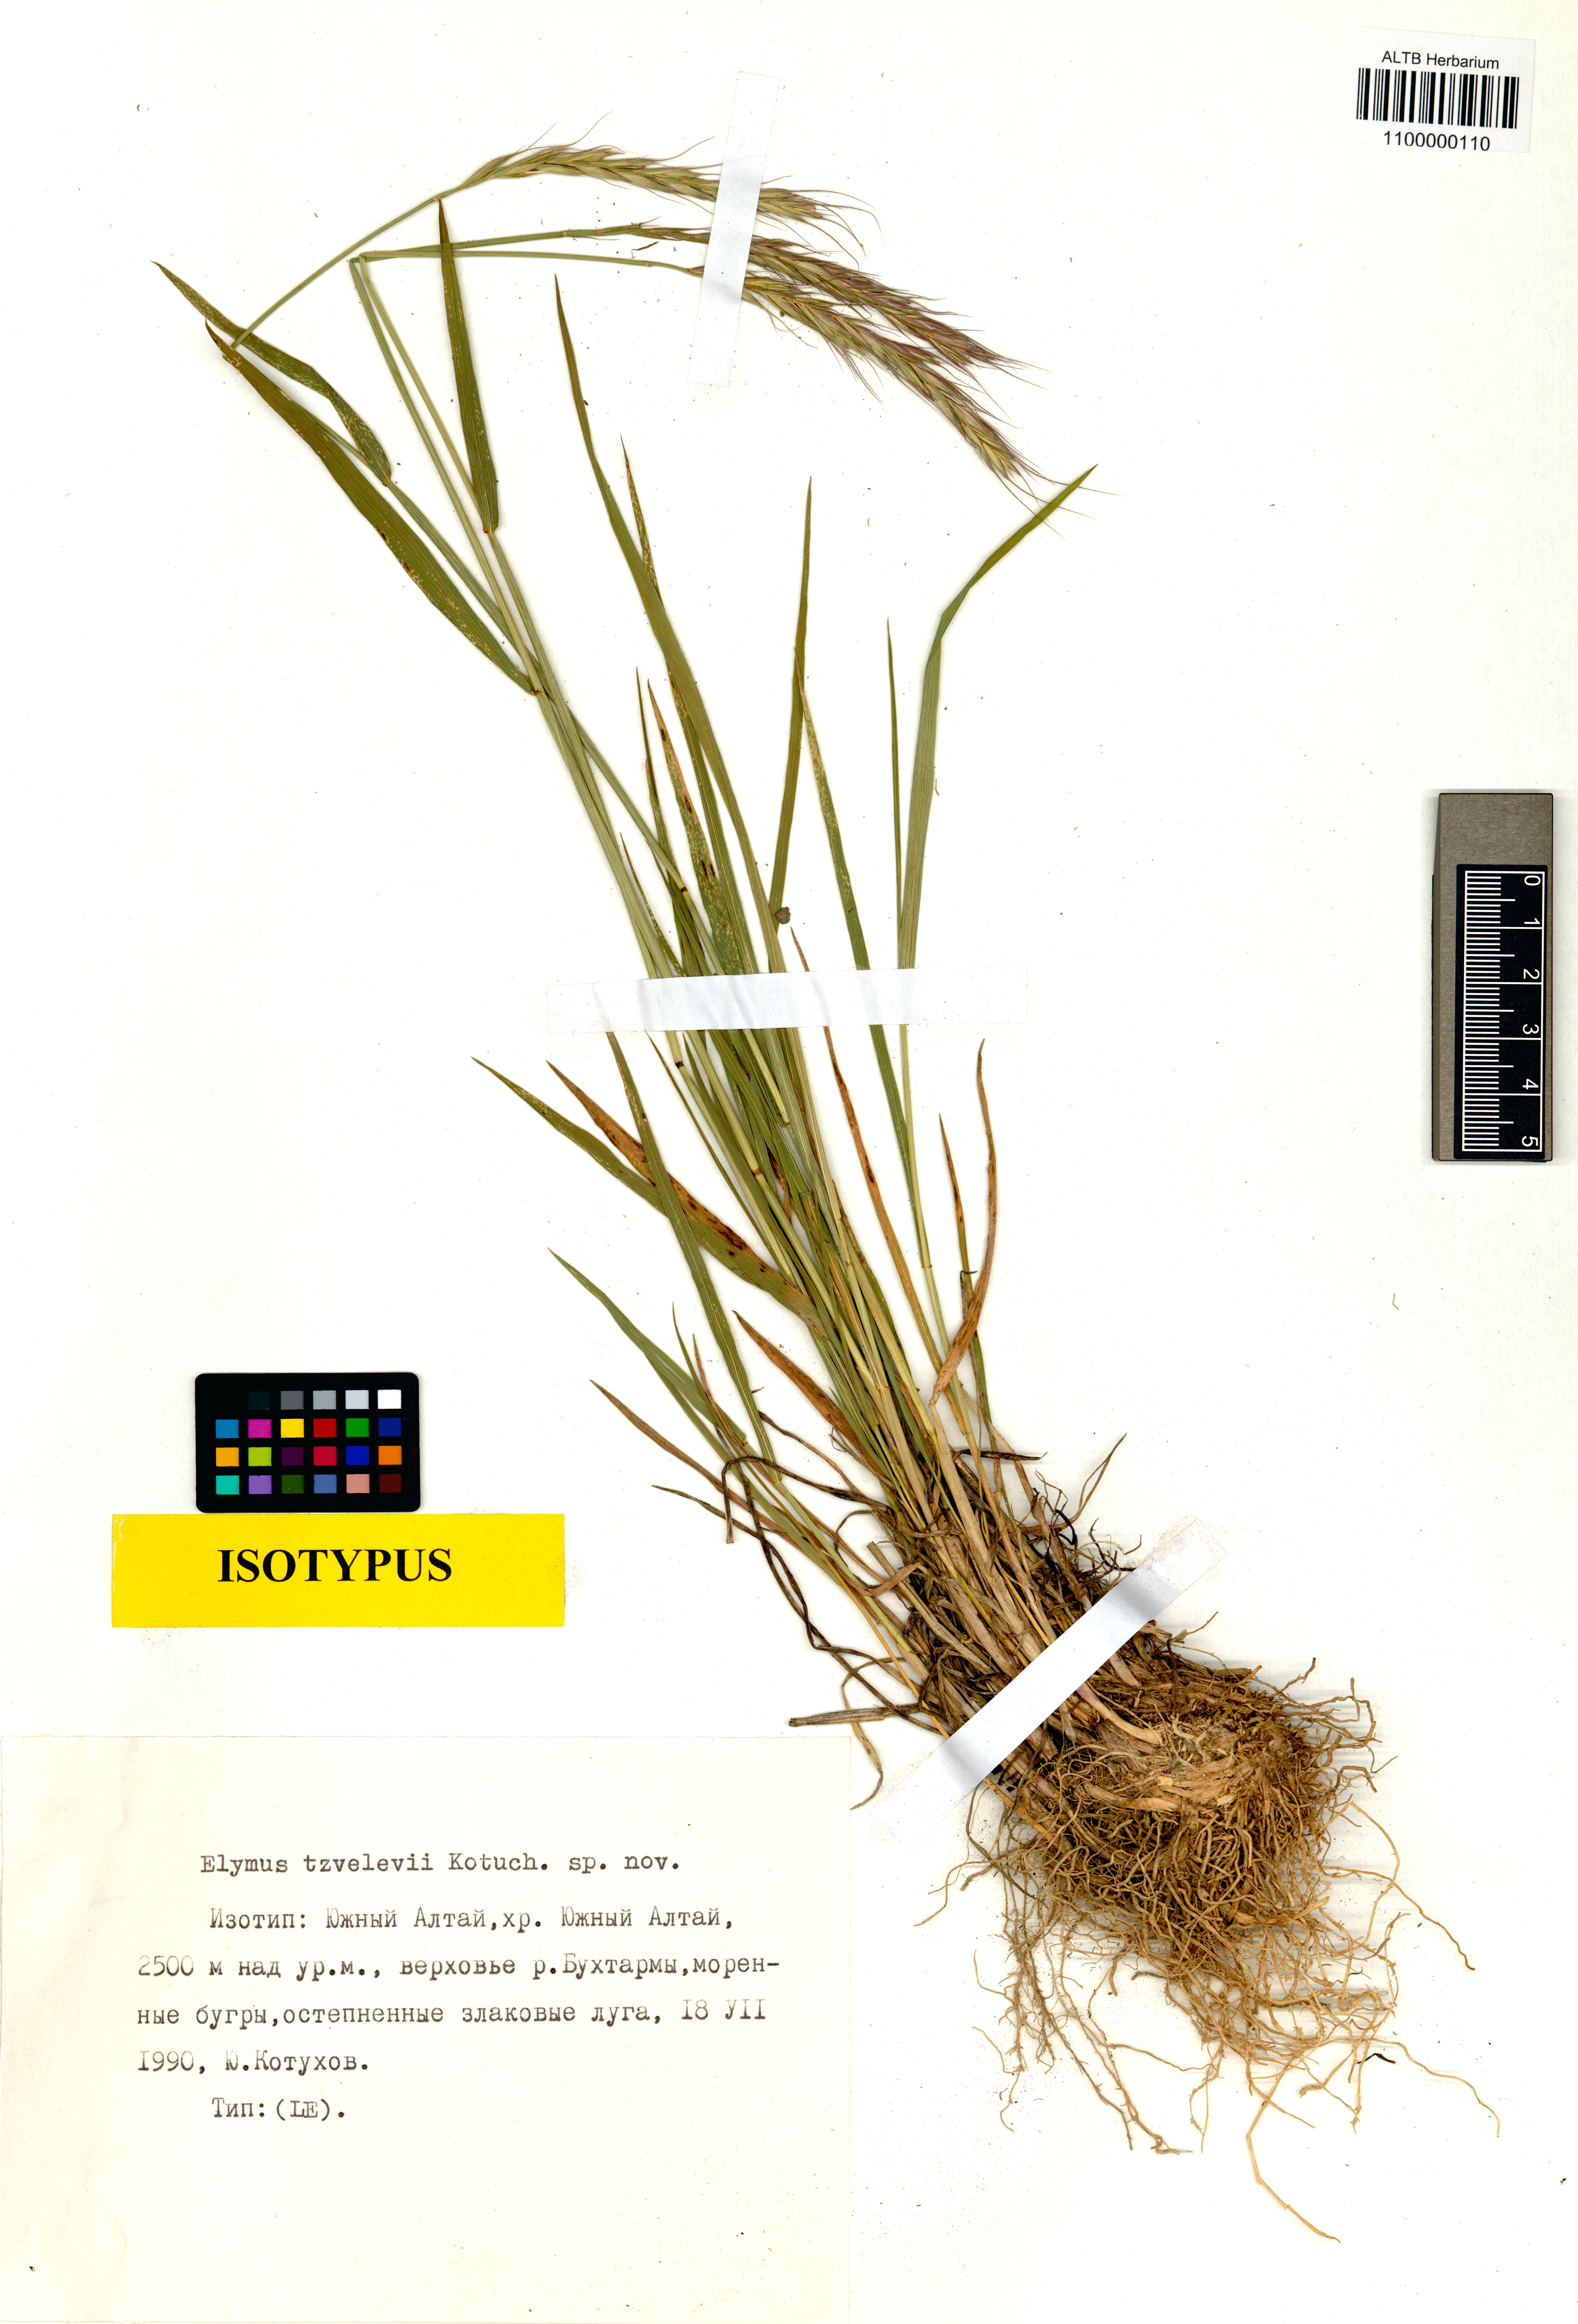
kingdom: Plantae
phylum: Tracheophyta
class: Liliopsida
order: Poales
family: Poaceae
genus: Campeiostachys
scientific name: Campeiostachys schrenkiana
